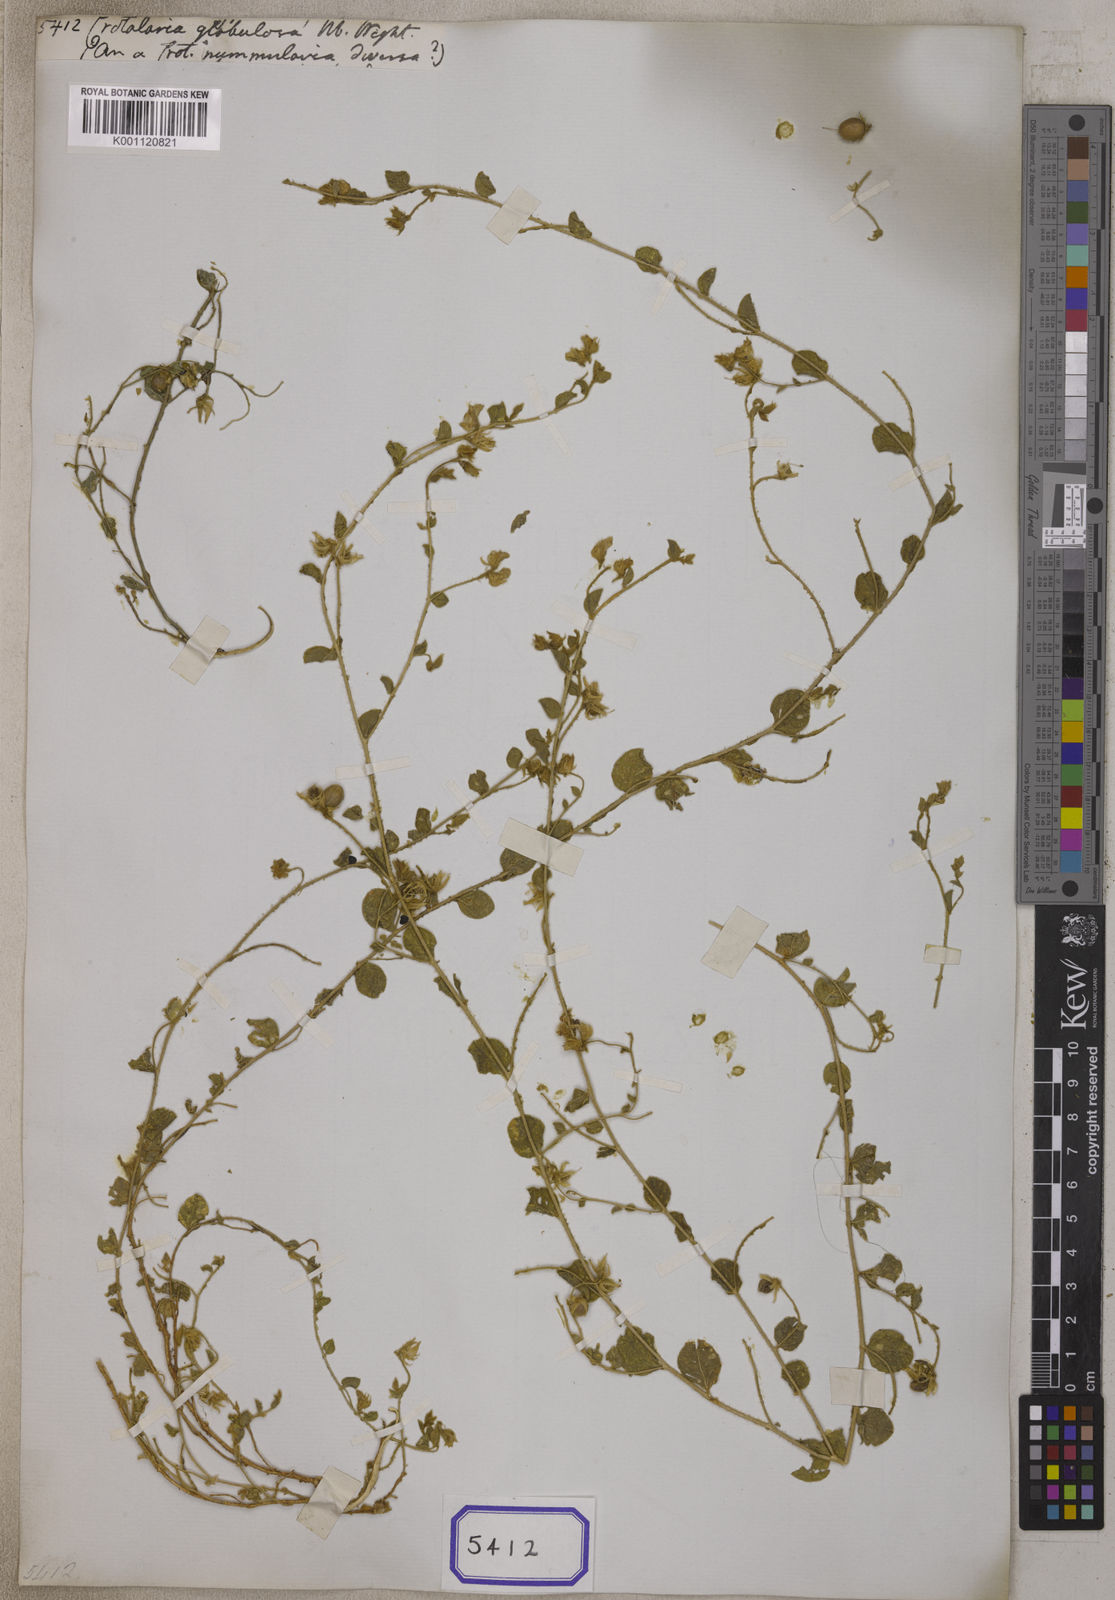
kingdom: Plantae
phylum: Tracheophyta
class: Magnoliopsida
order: Fabales
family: Fabaceae
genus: Crotalaria
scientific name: Crotalaria globosa
